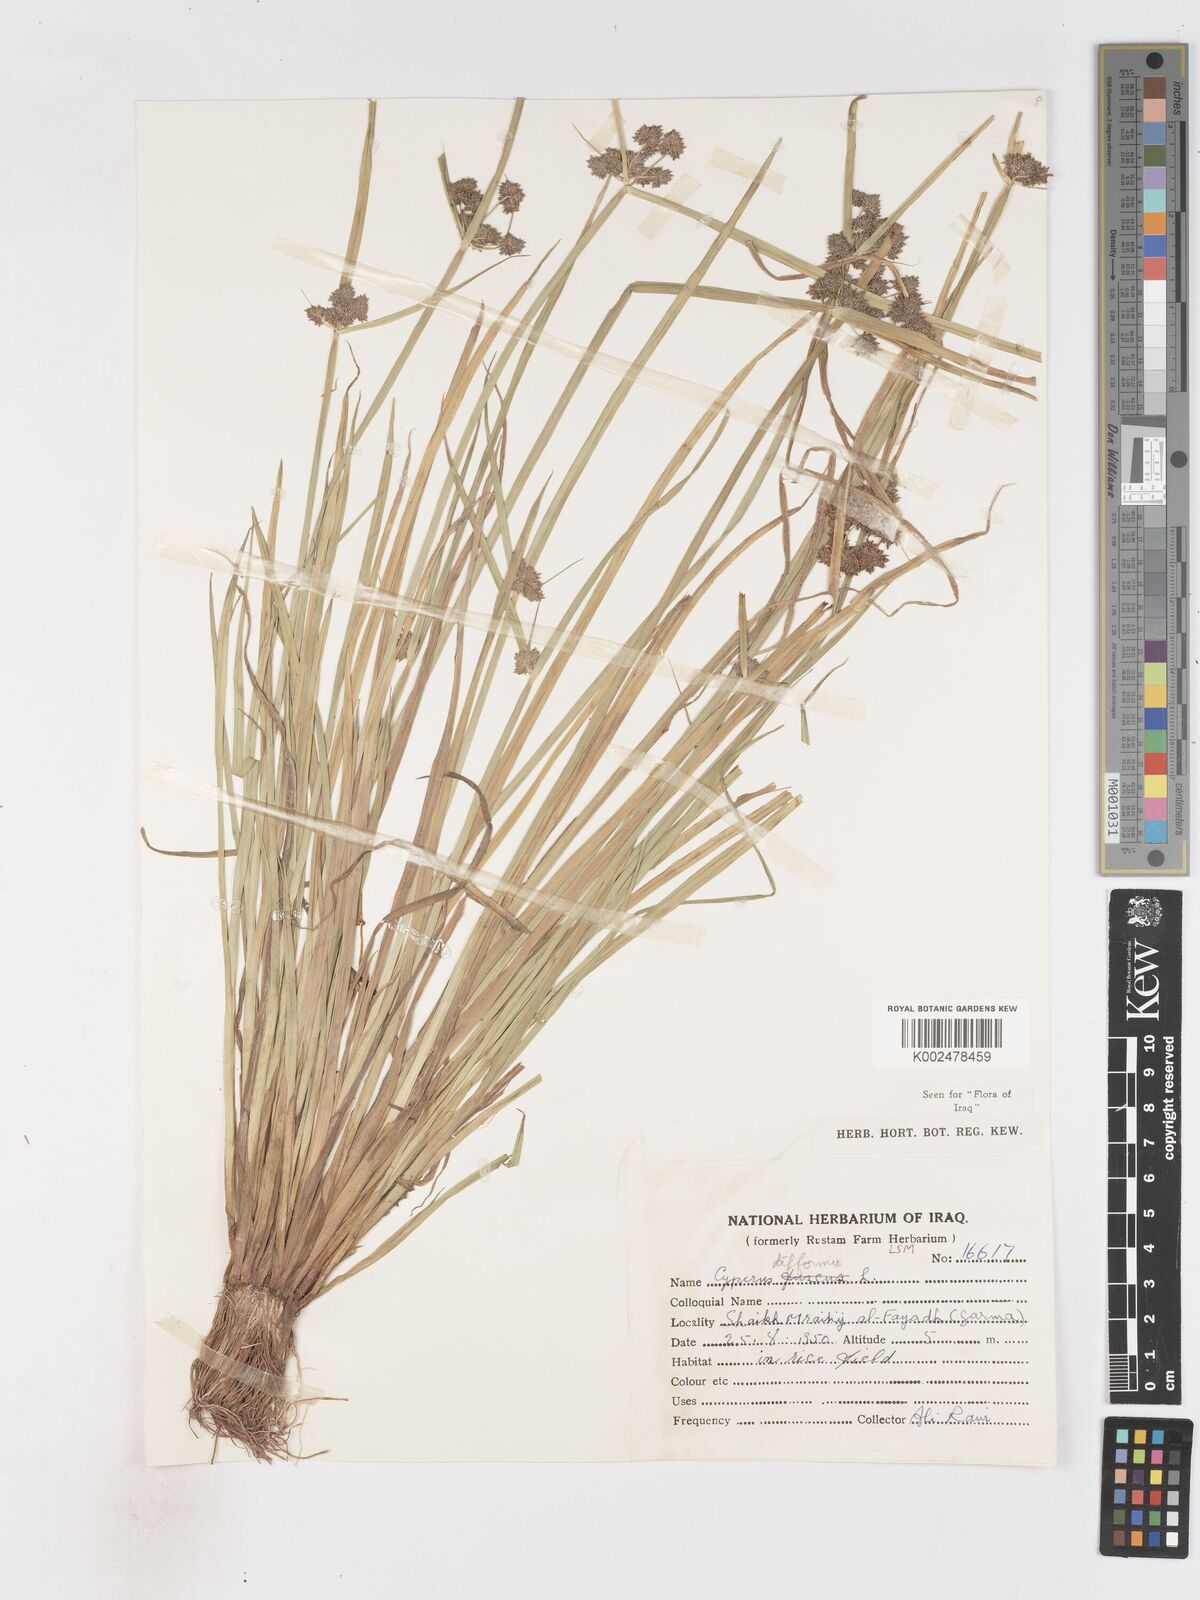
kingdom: Plantae
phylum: Tracheophyta
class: Liliopsida
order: Poales
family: Cyperaceae
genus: Cyperus
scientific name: Cyperus difformis
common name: Variable flatsedge
